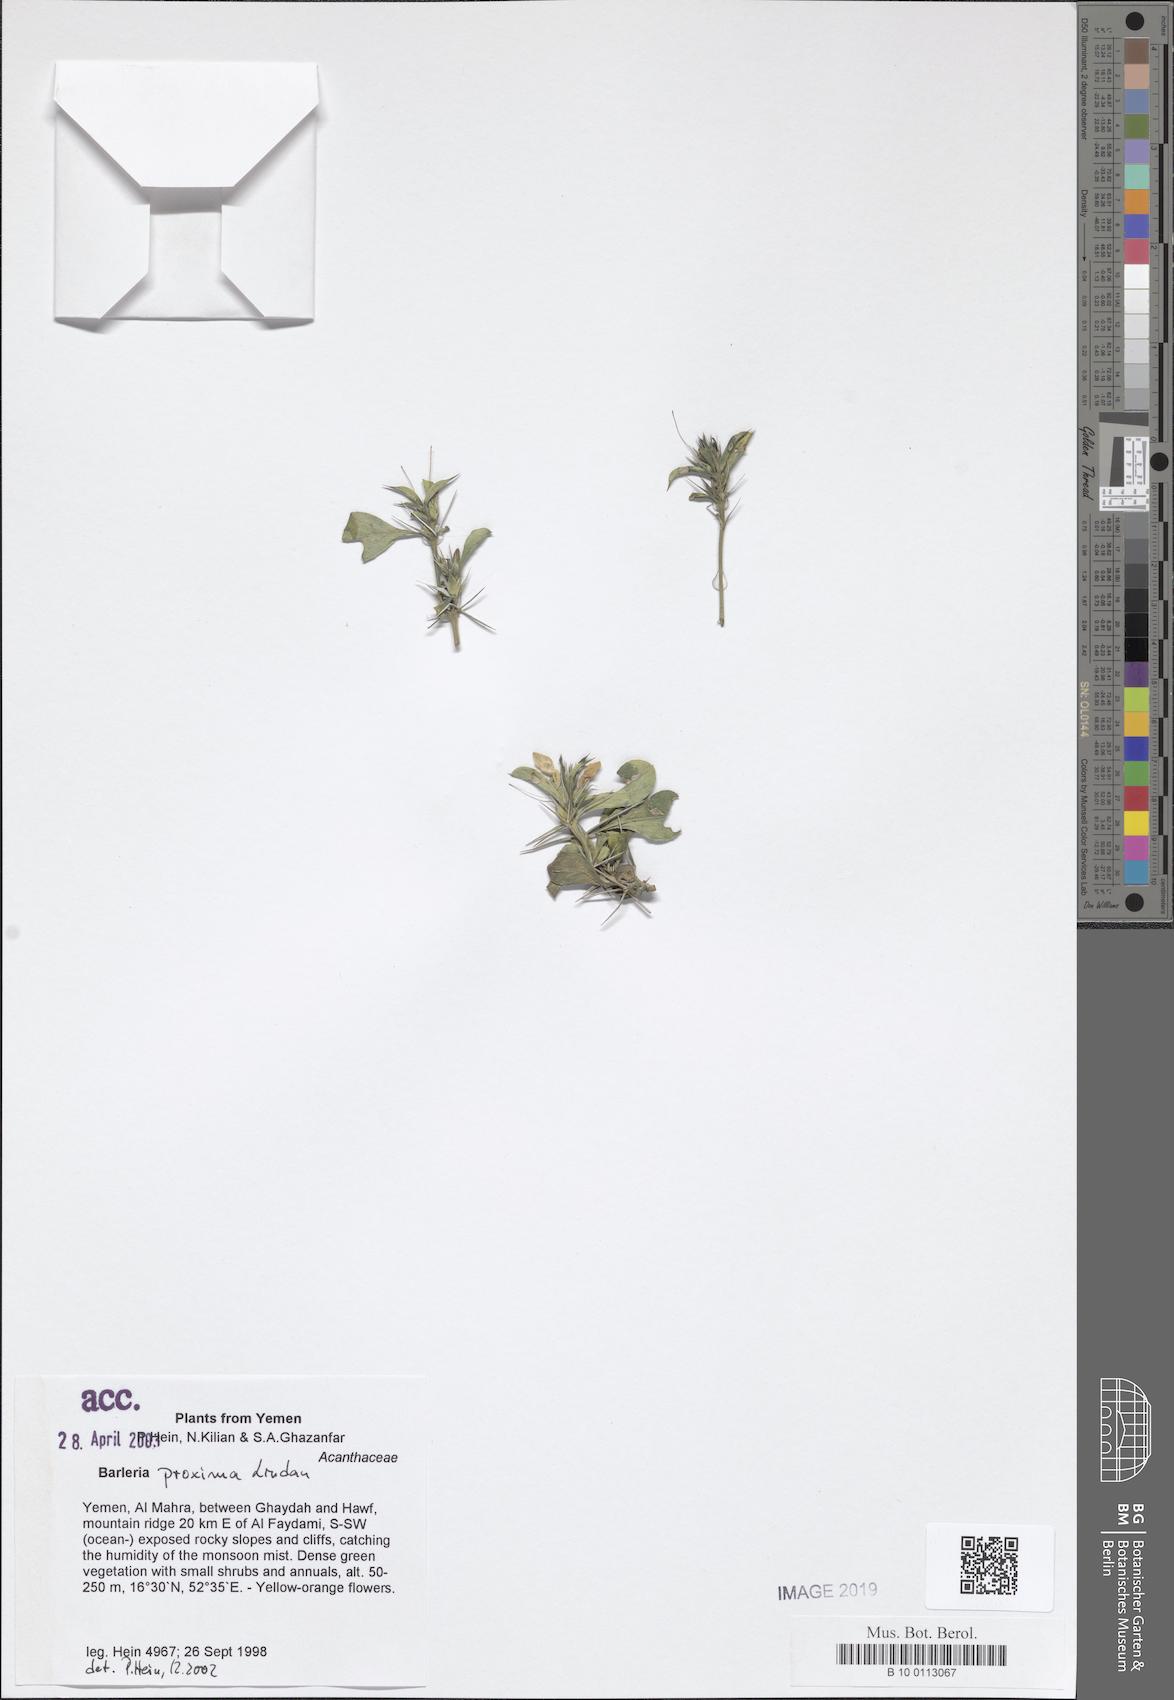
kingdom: Plantae
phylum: Tracheophyta
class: Magnoliopsida
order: Lamiales
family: Acanthaceae
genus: Barleria
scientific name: Barleria proxima
